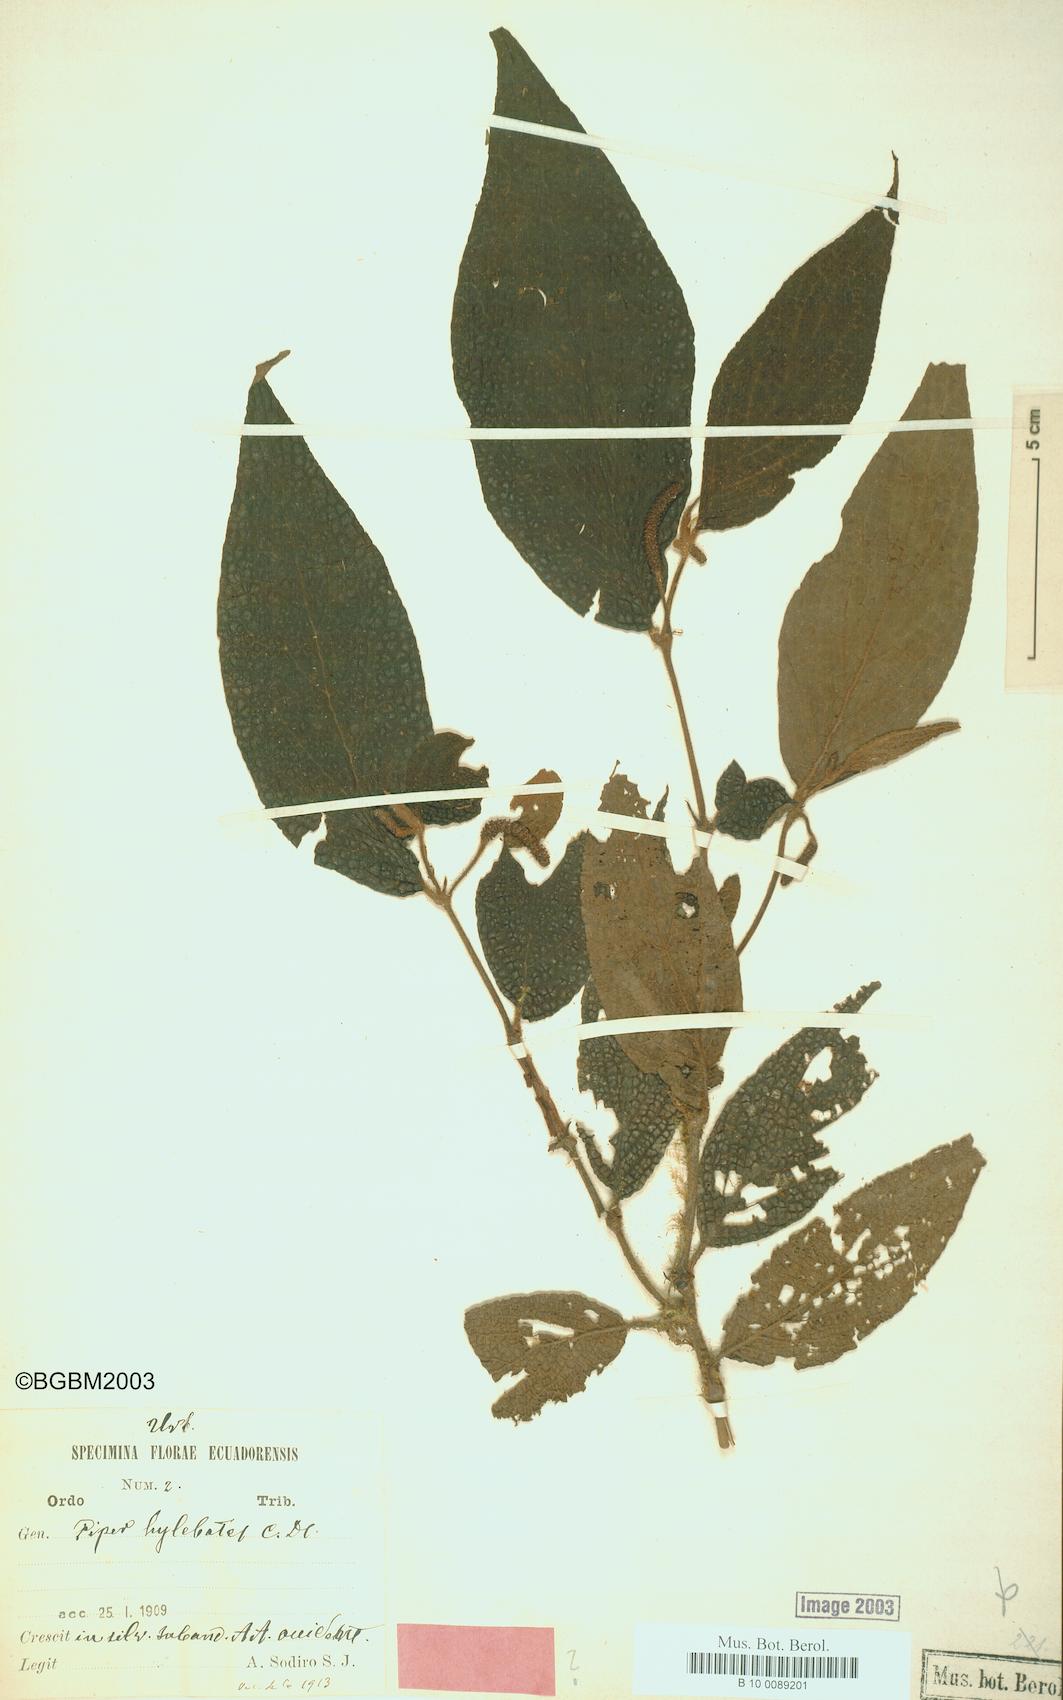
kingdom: Plantae
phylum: Tracheophyta
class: Magnoliopsida
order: Piperales
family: Piperaceae
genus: Piper
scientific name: Piper hylebates
